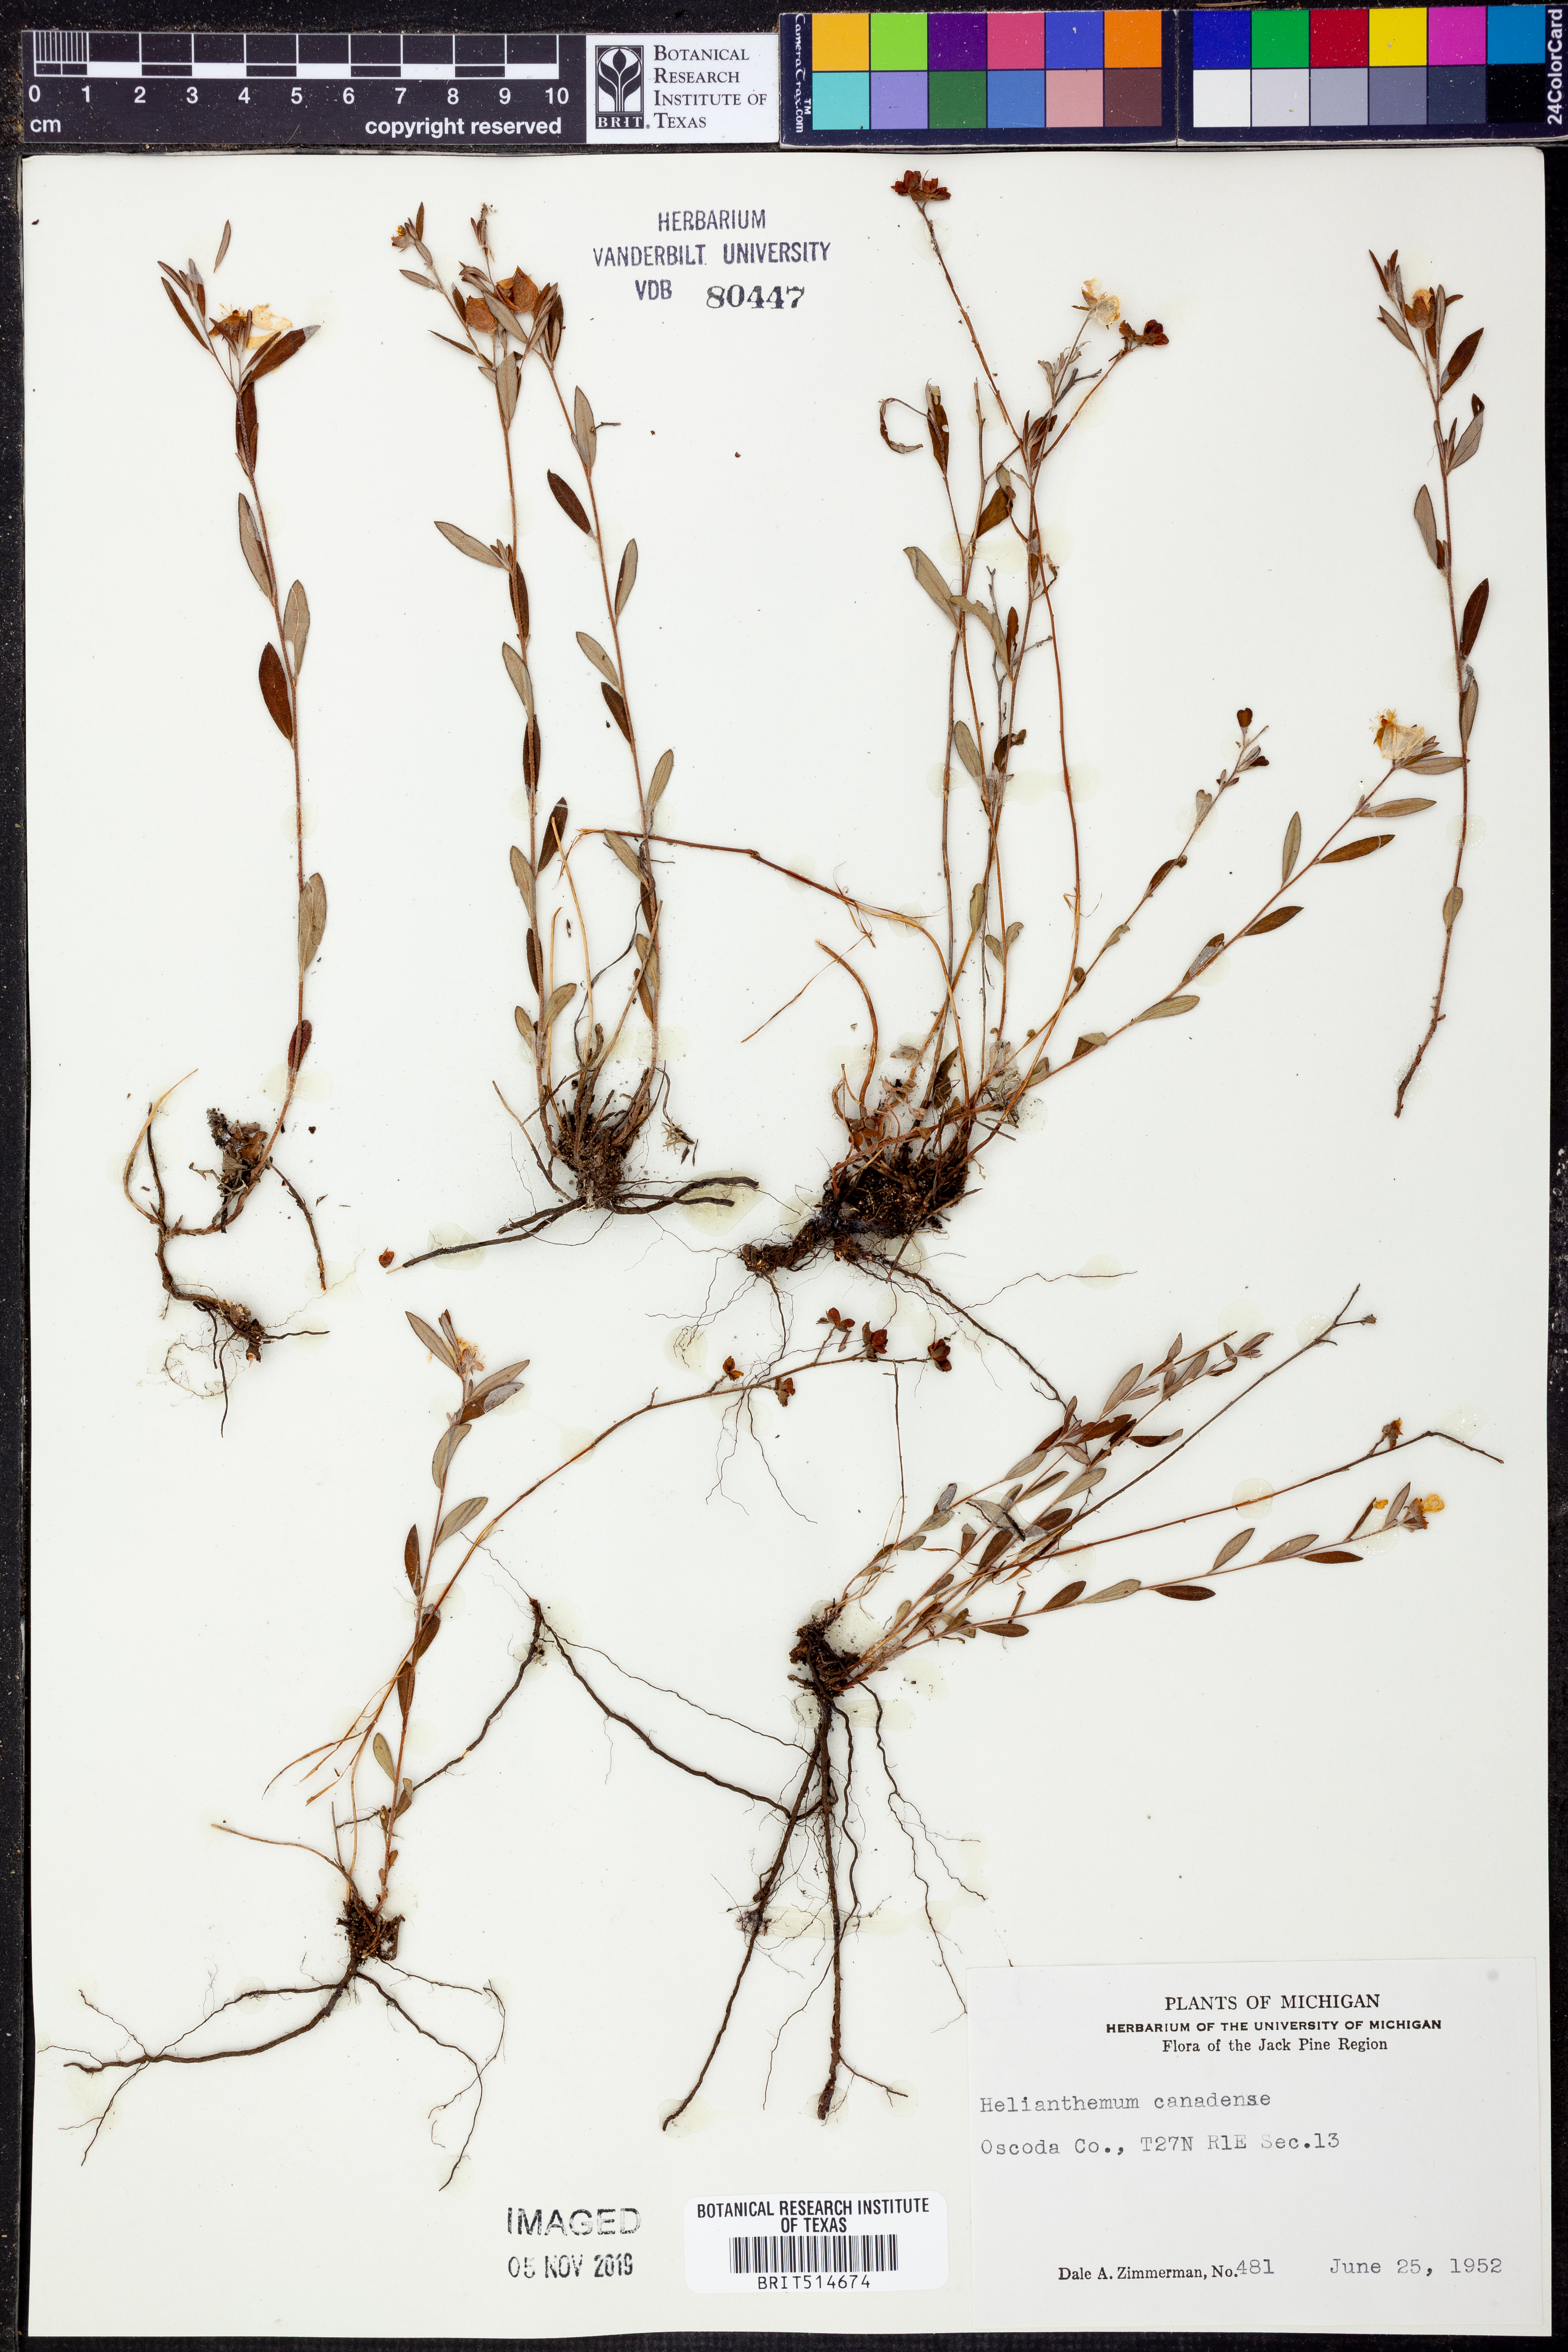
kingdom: Plantae
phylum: Tracheophyta
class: Magnoliopsida
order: Malvales
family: Cistaceae
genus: Crocanthemum
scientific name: Crocanthemum canadense
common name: Canada frostweed
